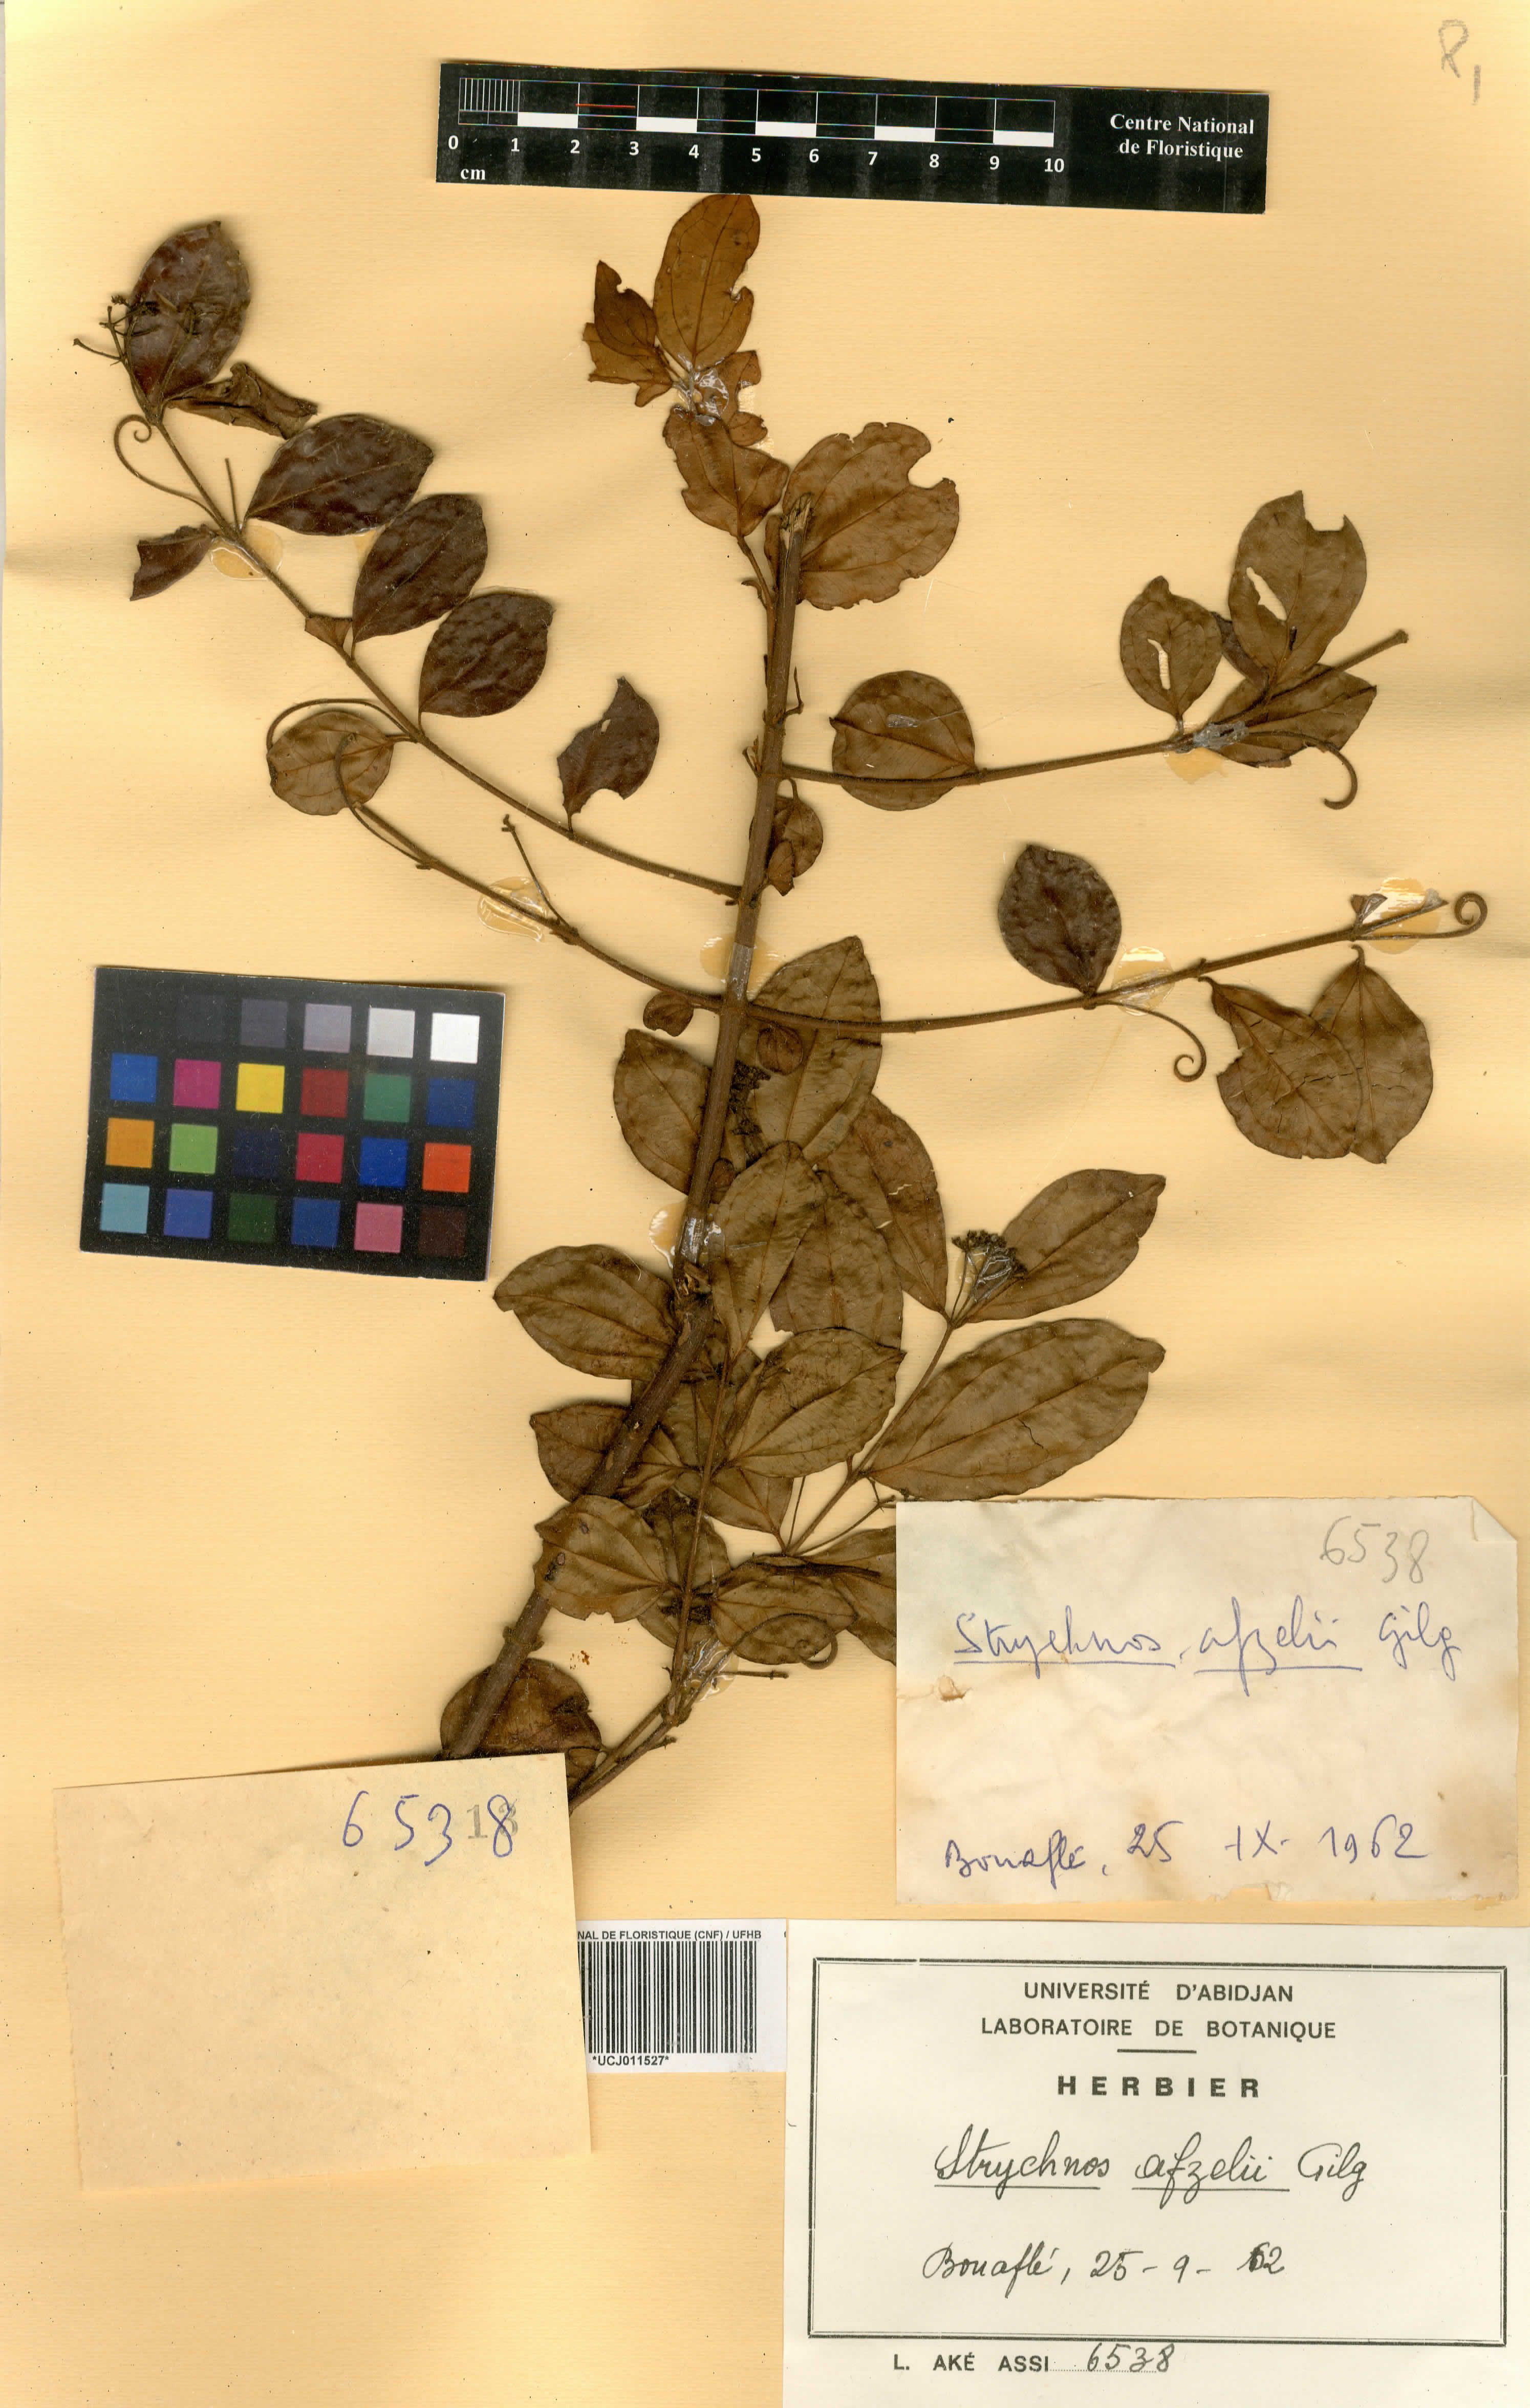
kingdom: Plantae
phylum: Tracheophyta
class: Magnoliopsida
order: Gentianales
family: Loganiaceae
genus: Strychnos
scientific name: Strychnos afzelii
